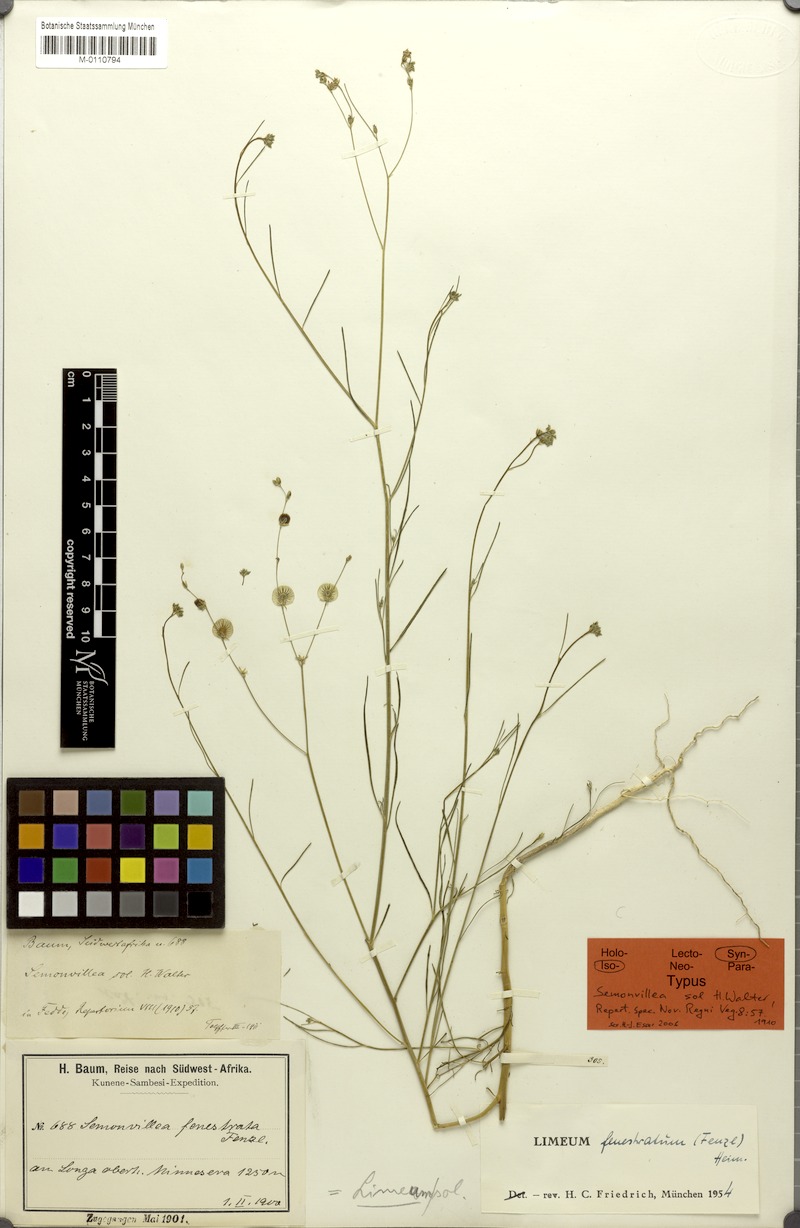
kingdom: Plantae
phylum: Tracheophyta
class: Magnoliopsida
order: Caryophyllales
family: Limeaceae
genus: Limeum
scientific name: Limeum fenestratum
